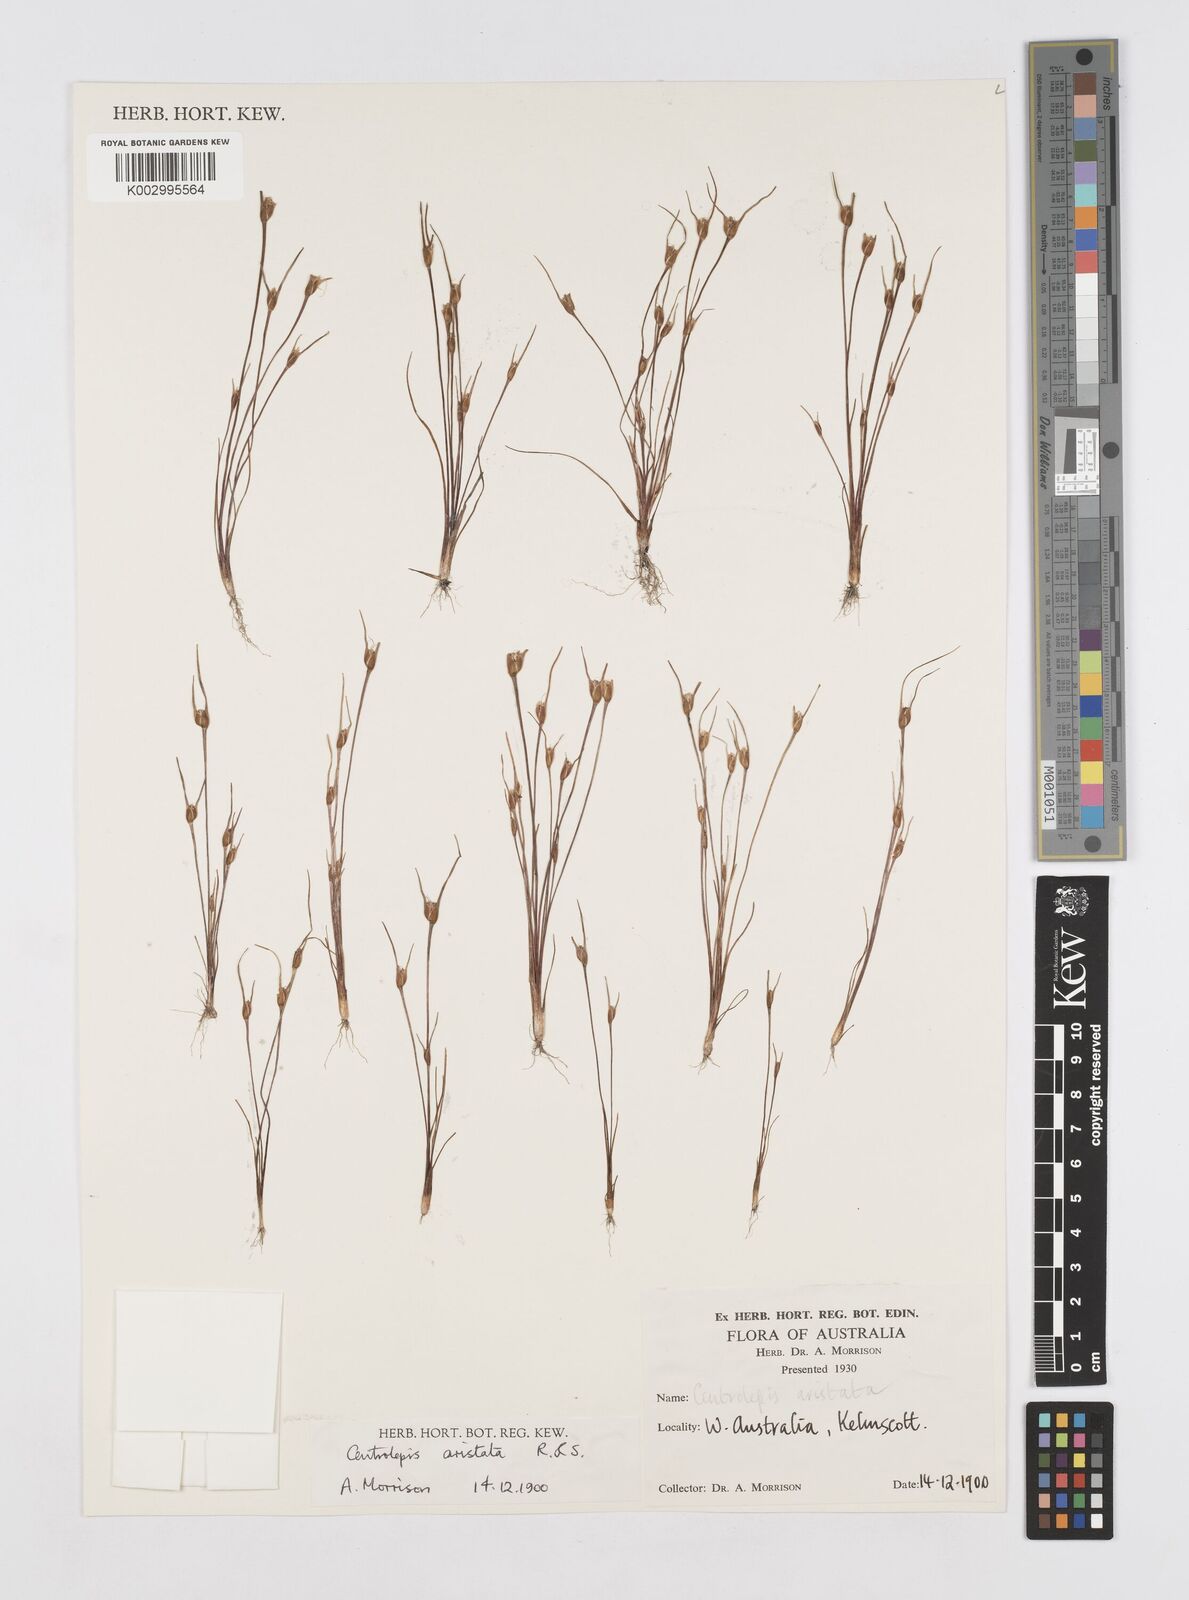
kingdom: Plantae
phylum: Tracheophyta
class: Liliopsida
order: Poales
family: Restionaceae
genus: Centrolepis
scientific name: Centrolepis aristata
